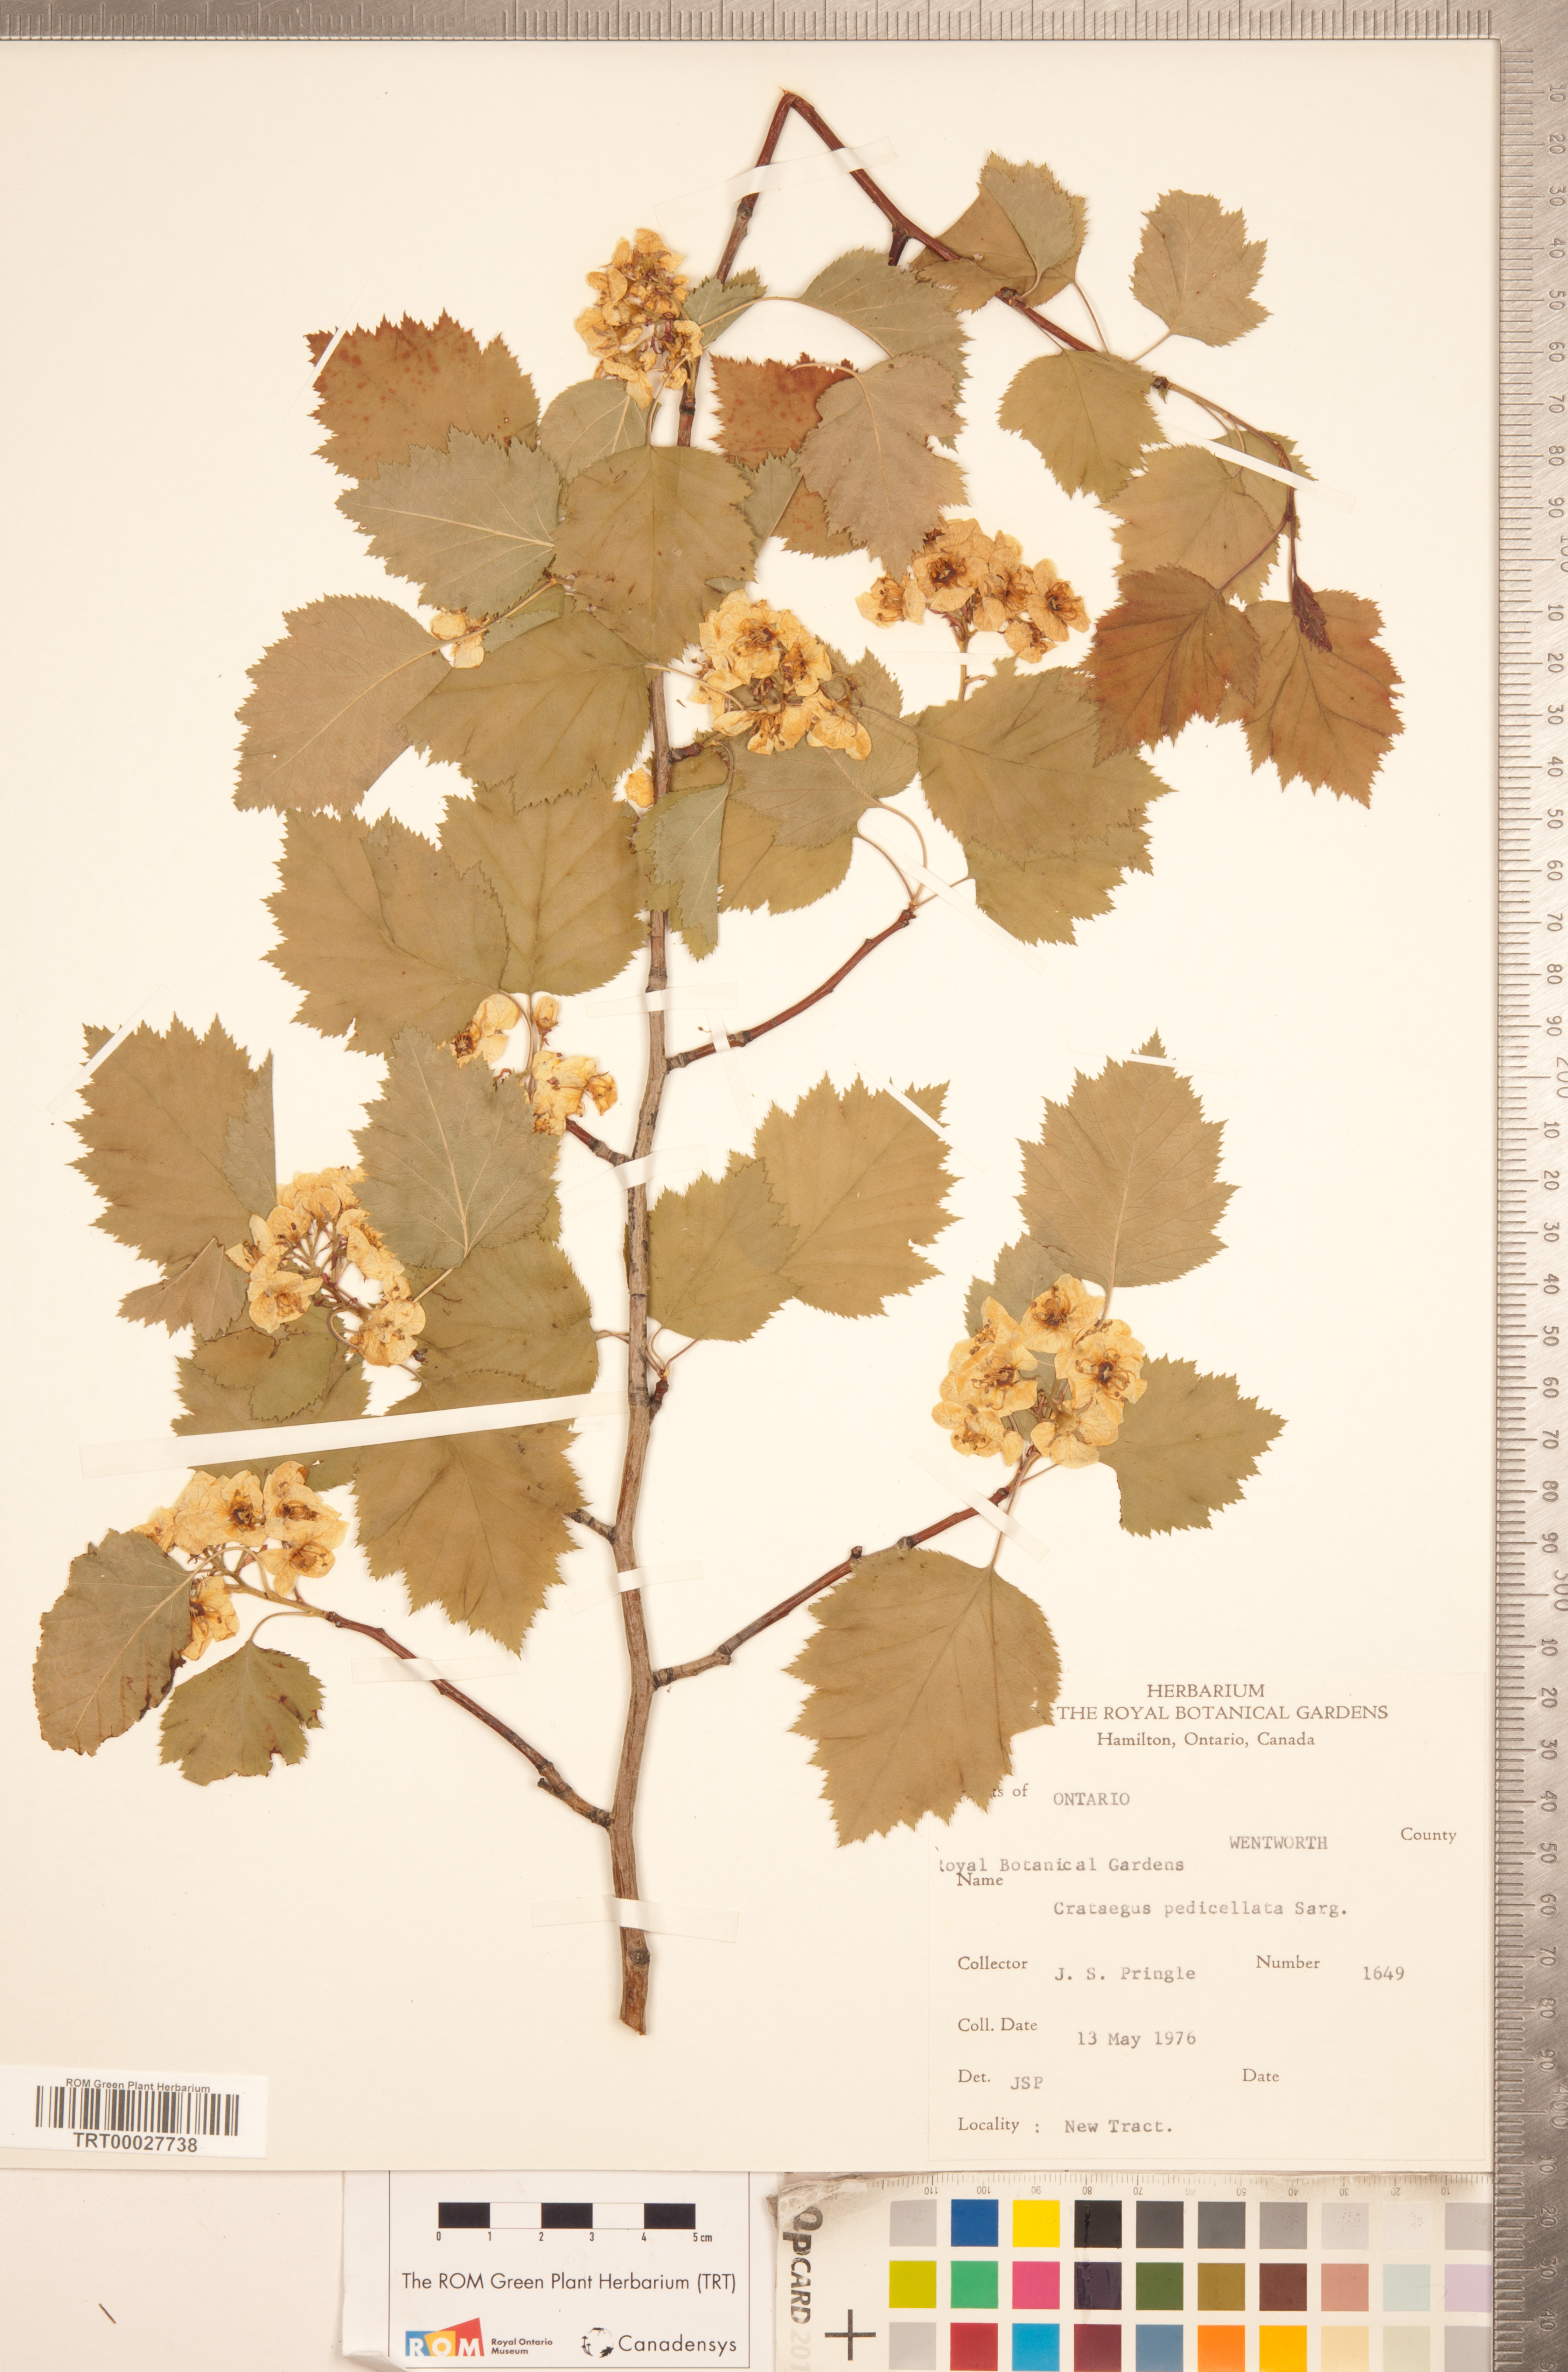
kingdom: Plantae
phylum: Tracheophyta
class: Magnoliopsida
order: Rosales
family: Rosaceae
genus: Crataegus
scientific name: Crataegus coccinea
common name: Scarlet hawthorn
